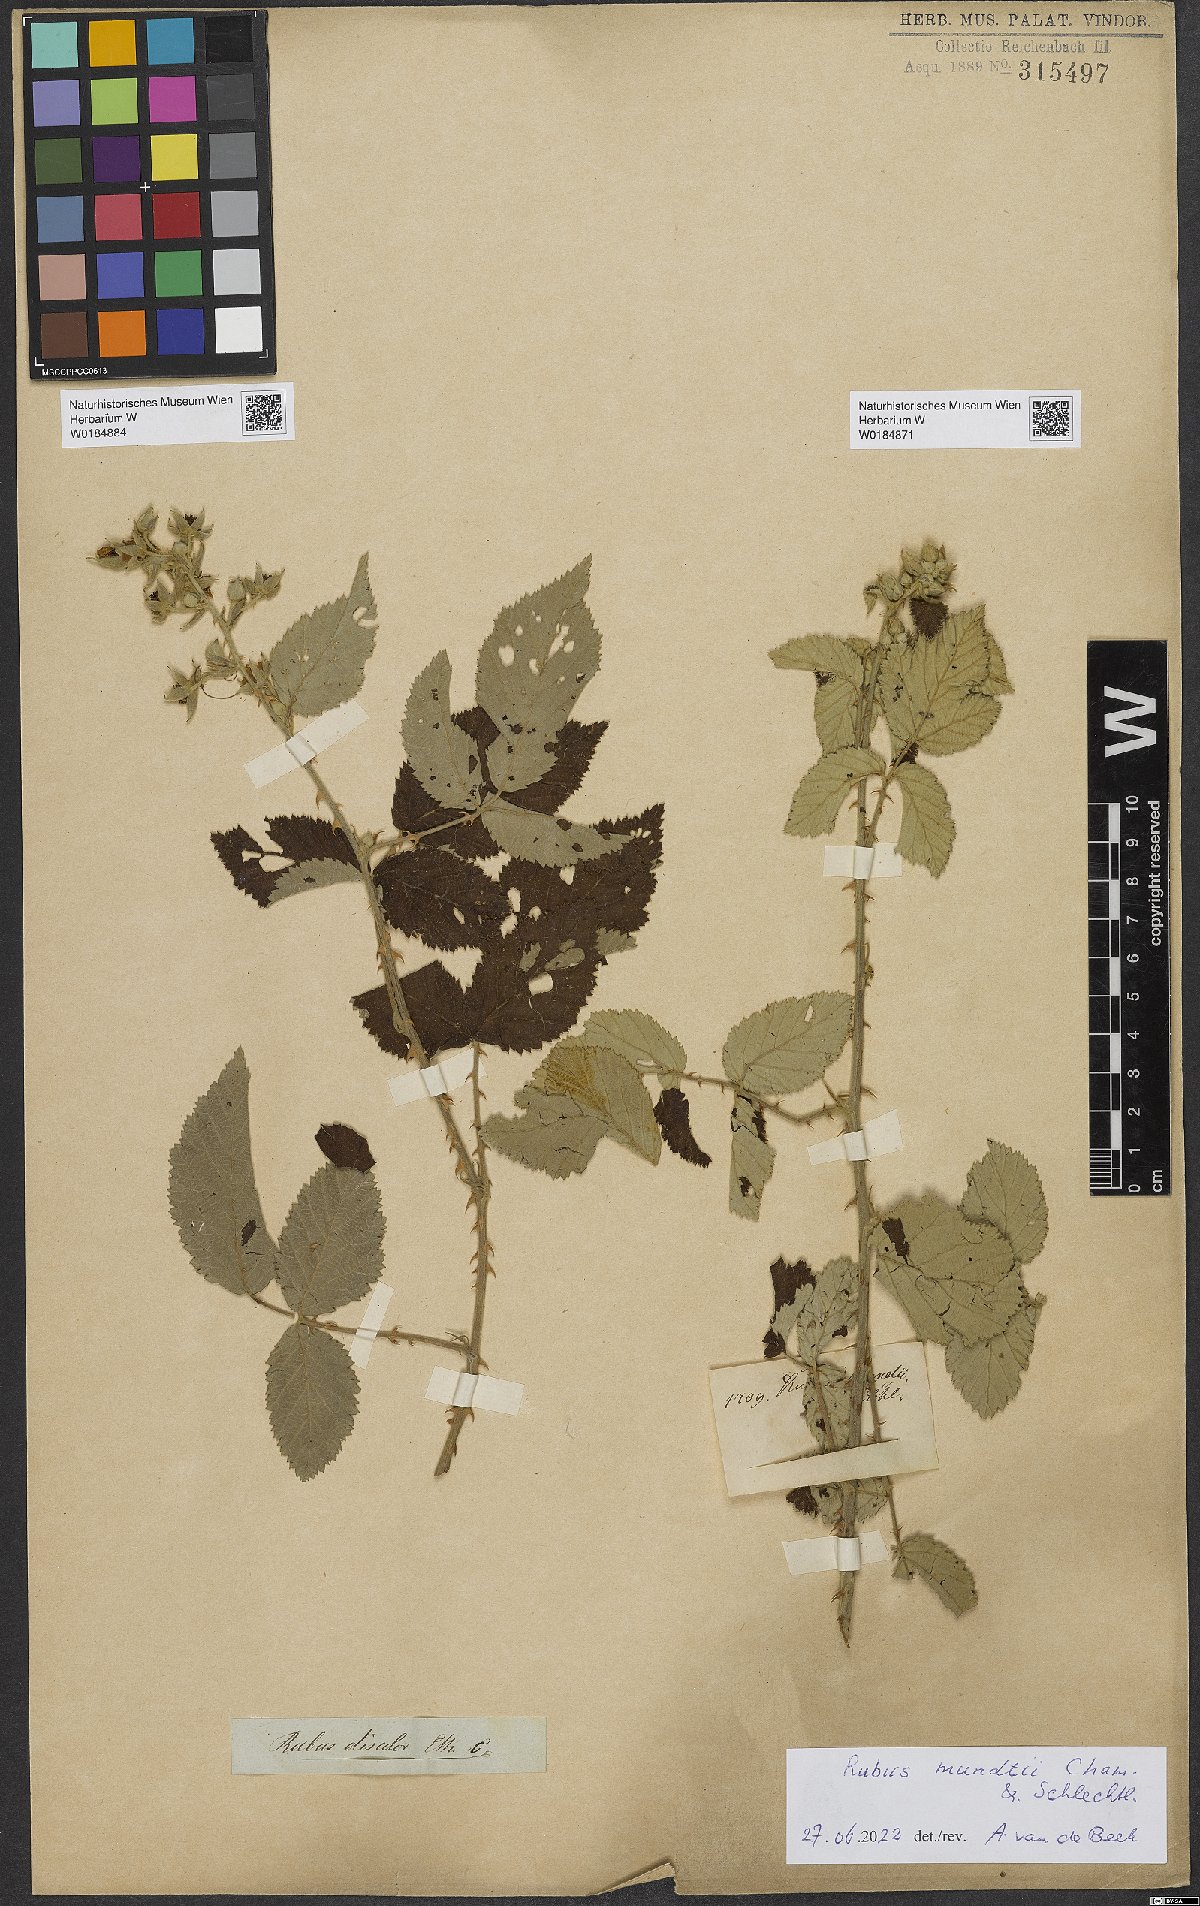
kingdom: Plantae
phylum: Tracheophyta
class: Magnoliopsida
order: Rosales
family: Rosaceae
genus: Rubus
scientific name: Rubus rigidus
